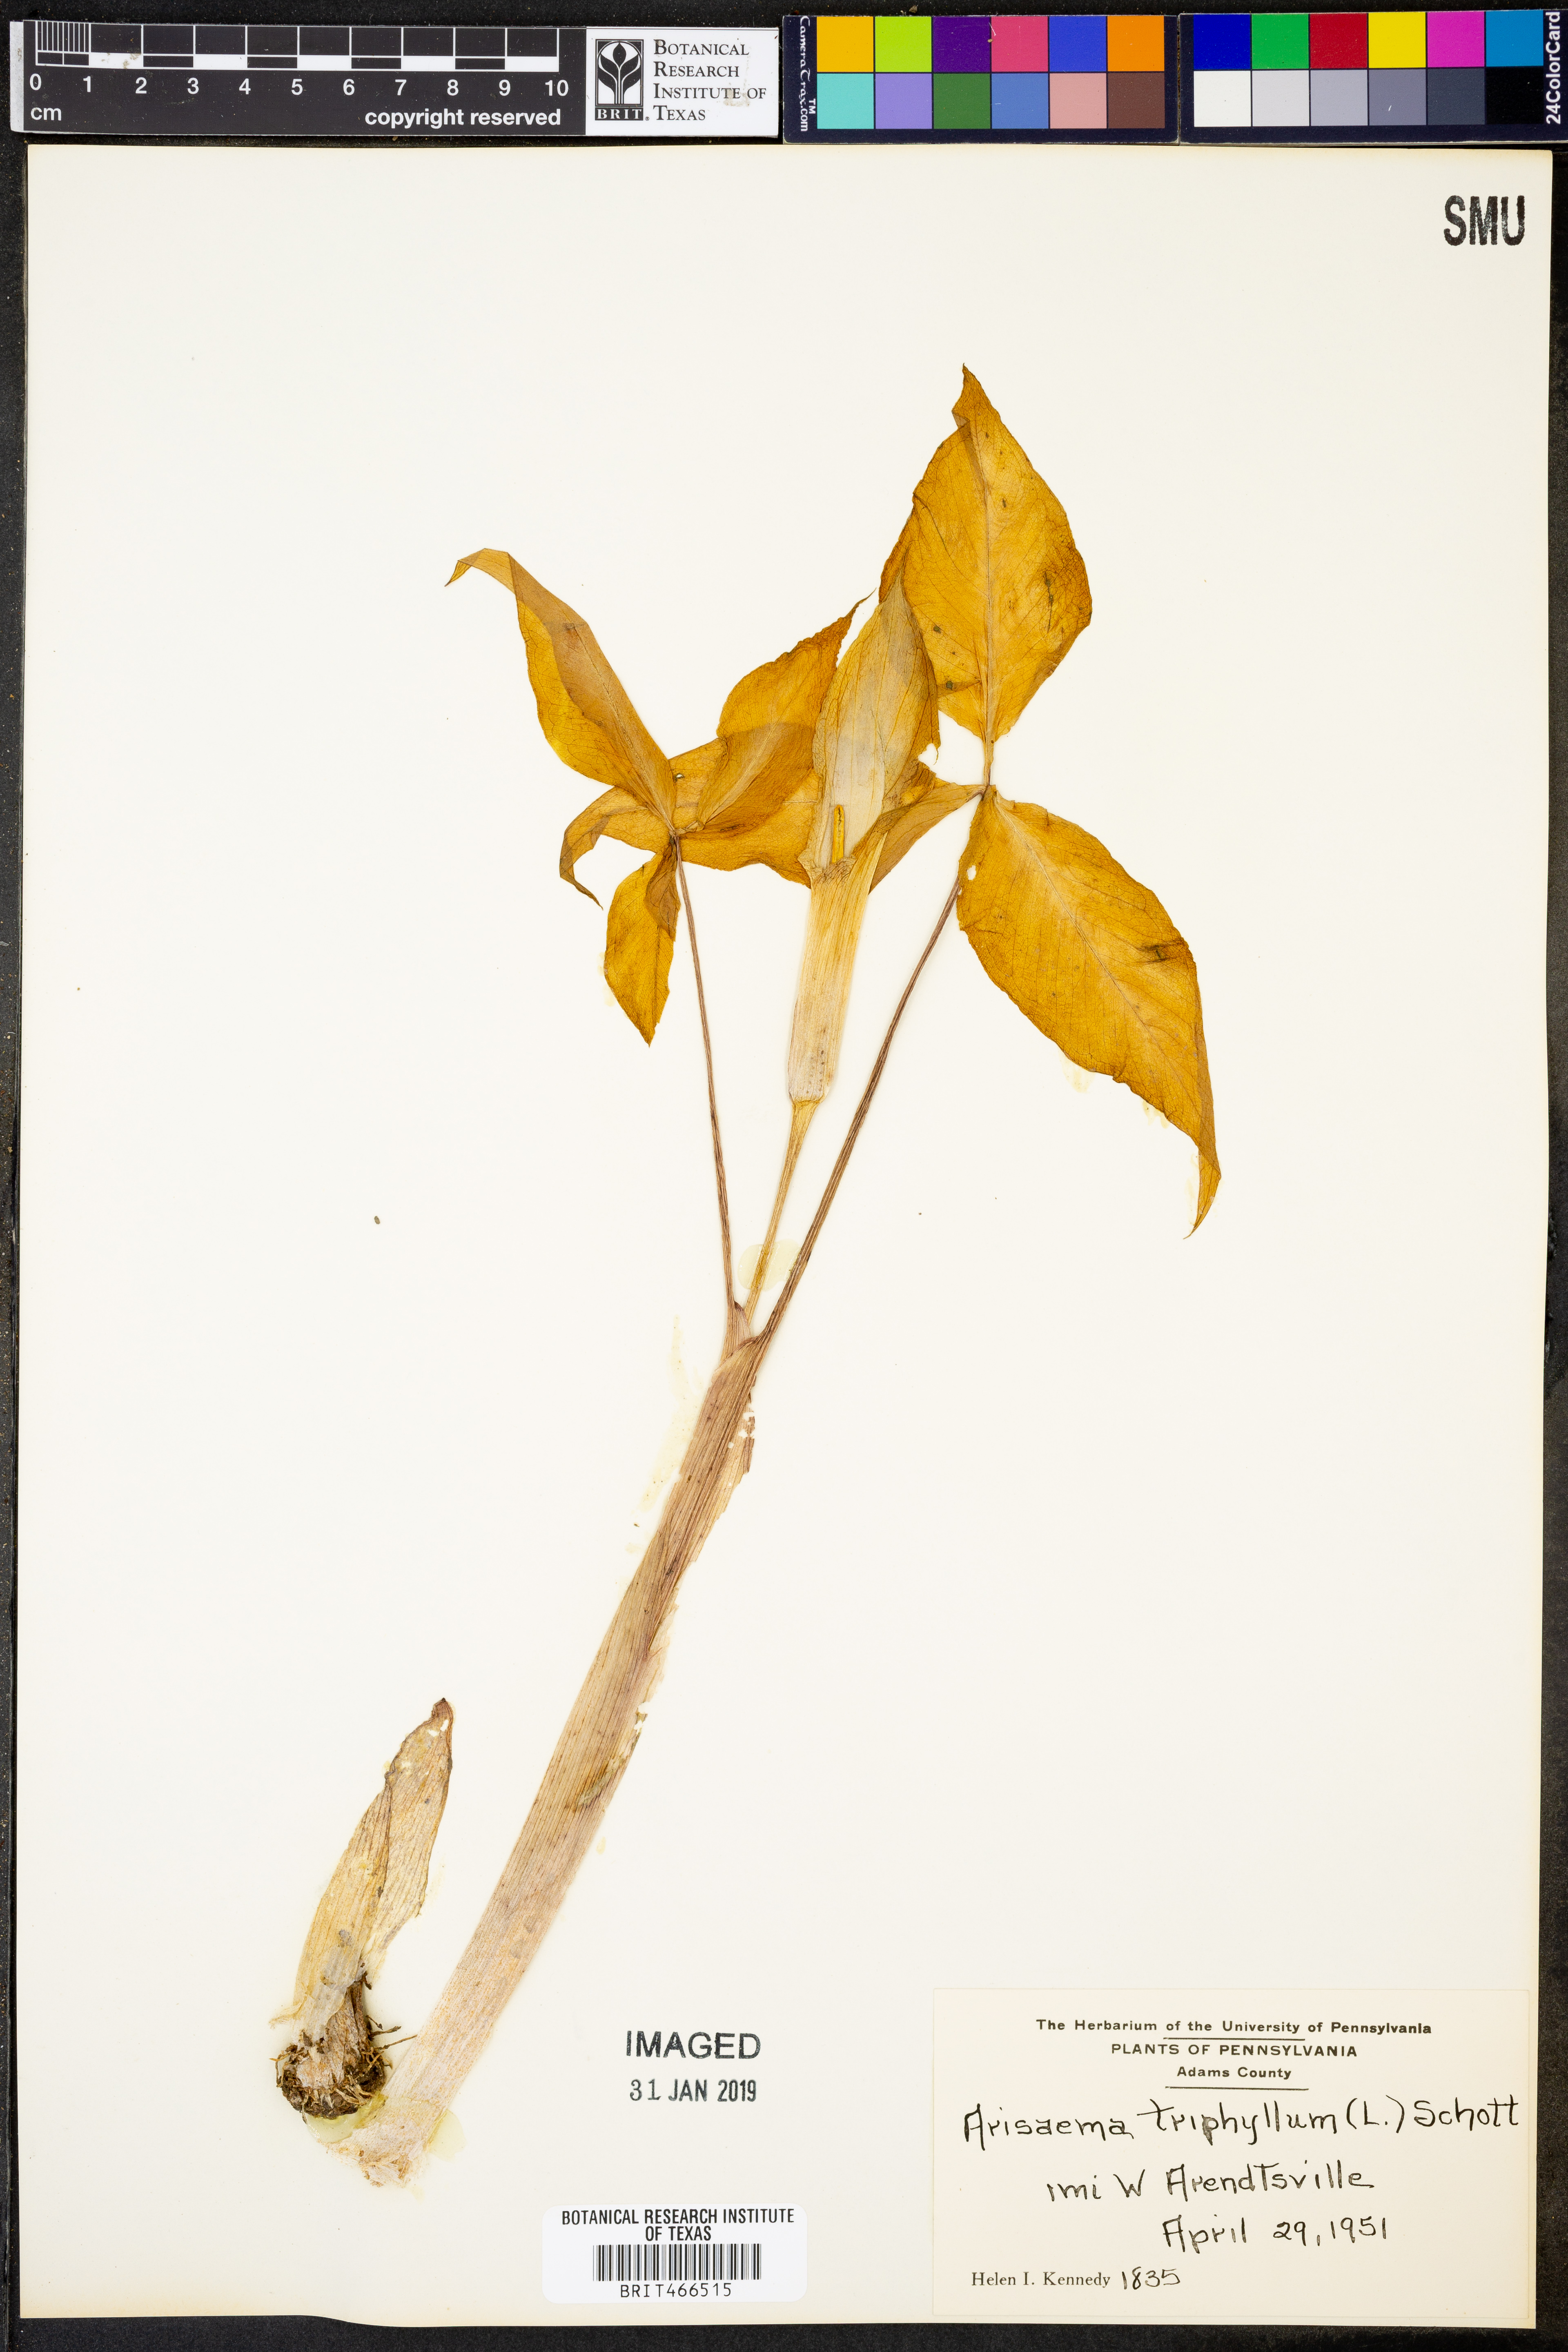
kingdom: Plantae
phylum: Tracheophyta
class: Liliopsida
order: Alismatales
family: Araceae
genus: Arisaema
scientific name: Arisaema triphyllum
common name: Jack-in-the-pulpit
